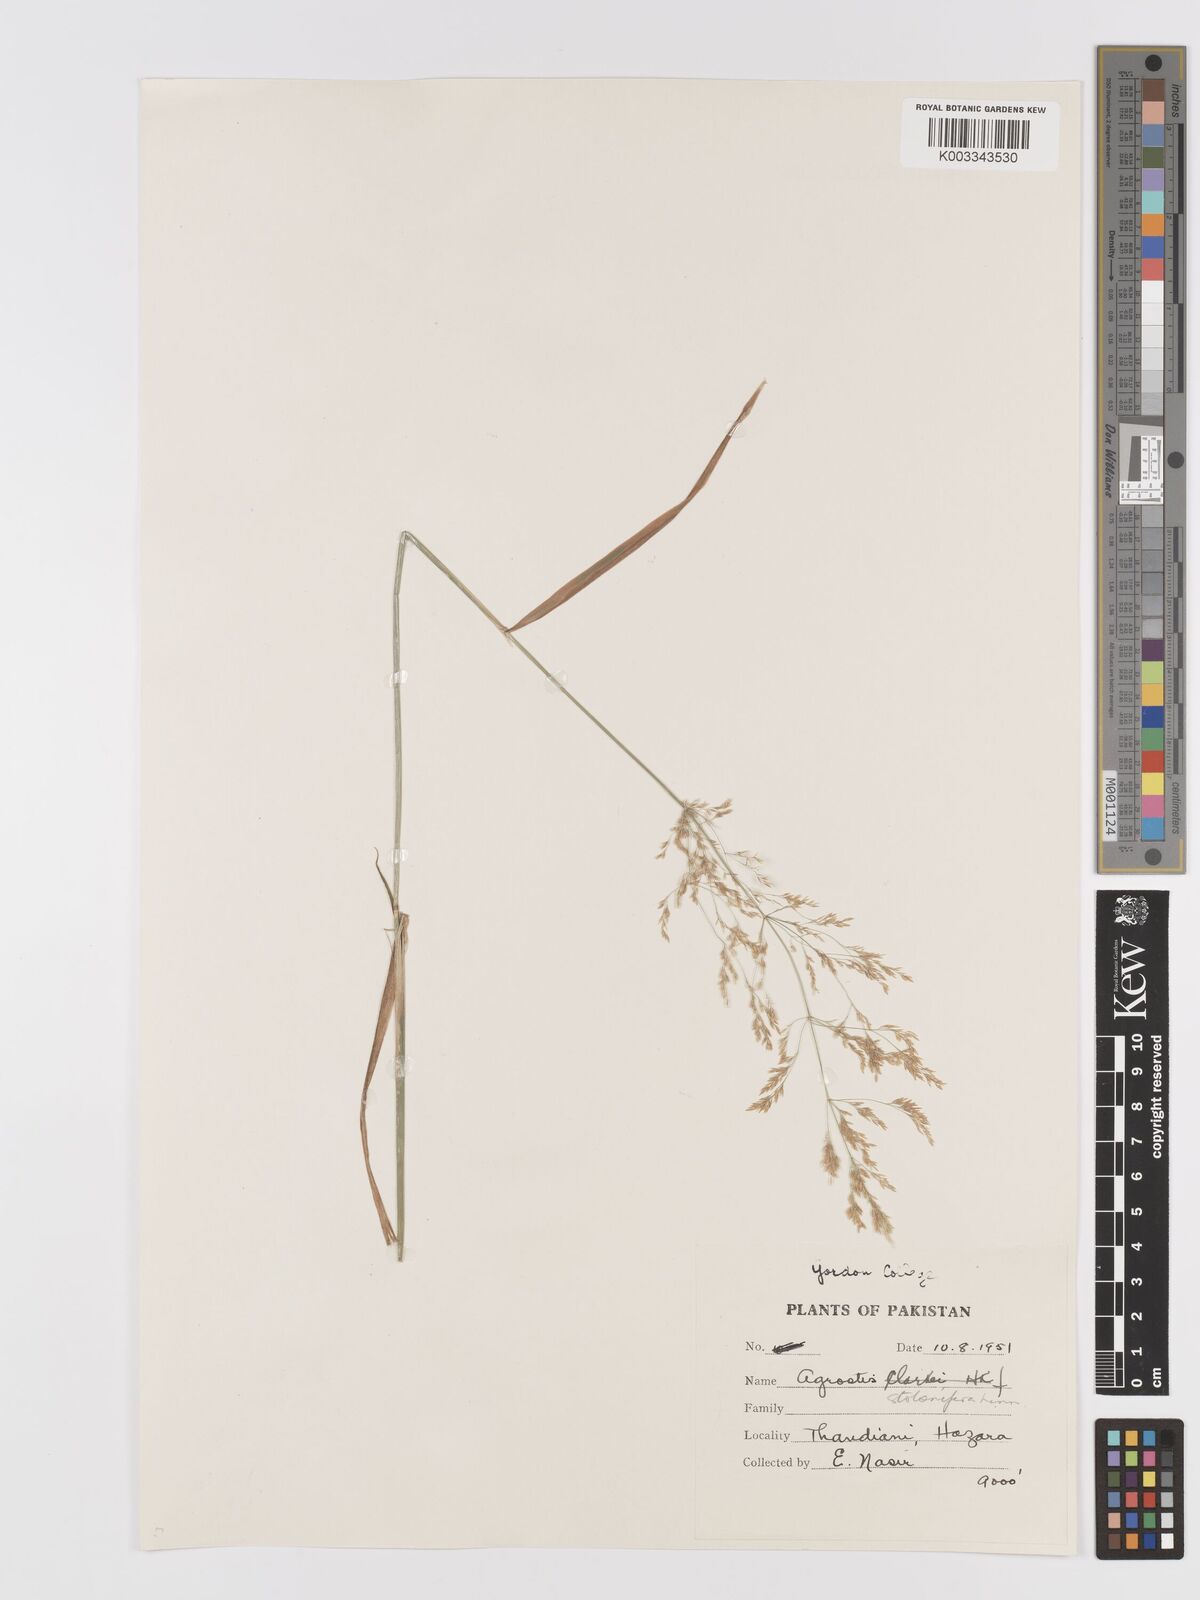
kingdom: Plantae
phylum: Tracheophyta
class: Liliopsida
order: Poales
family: Poaceae
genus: Agrostis
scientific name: Agrostis gigantea
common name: Black bent
